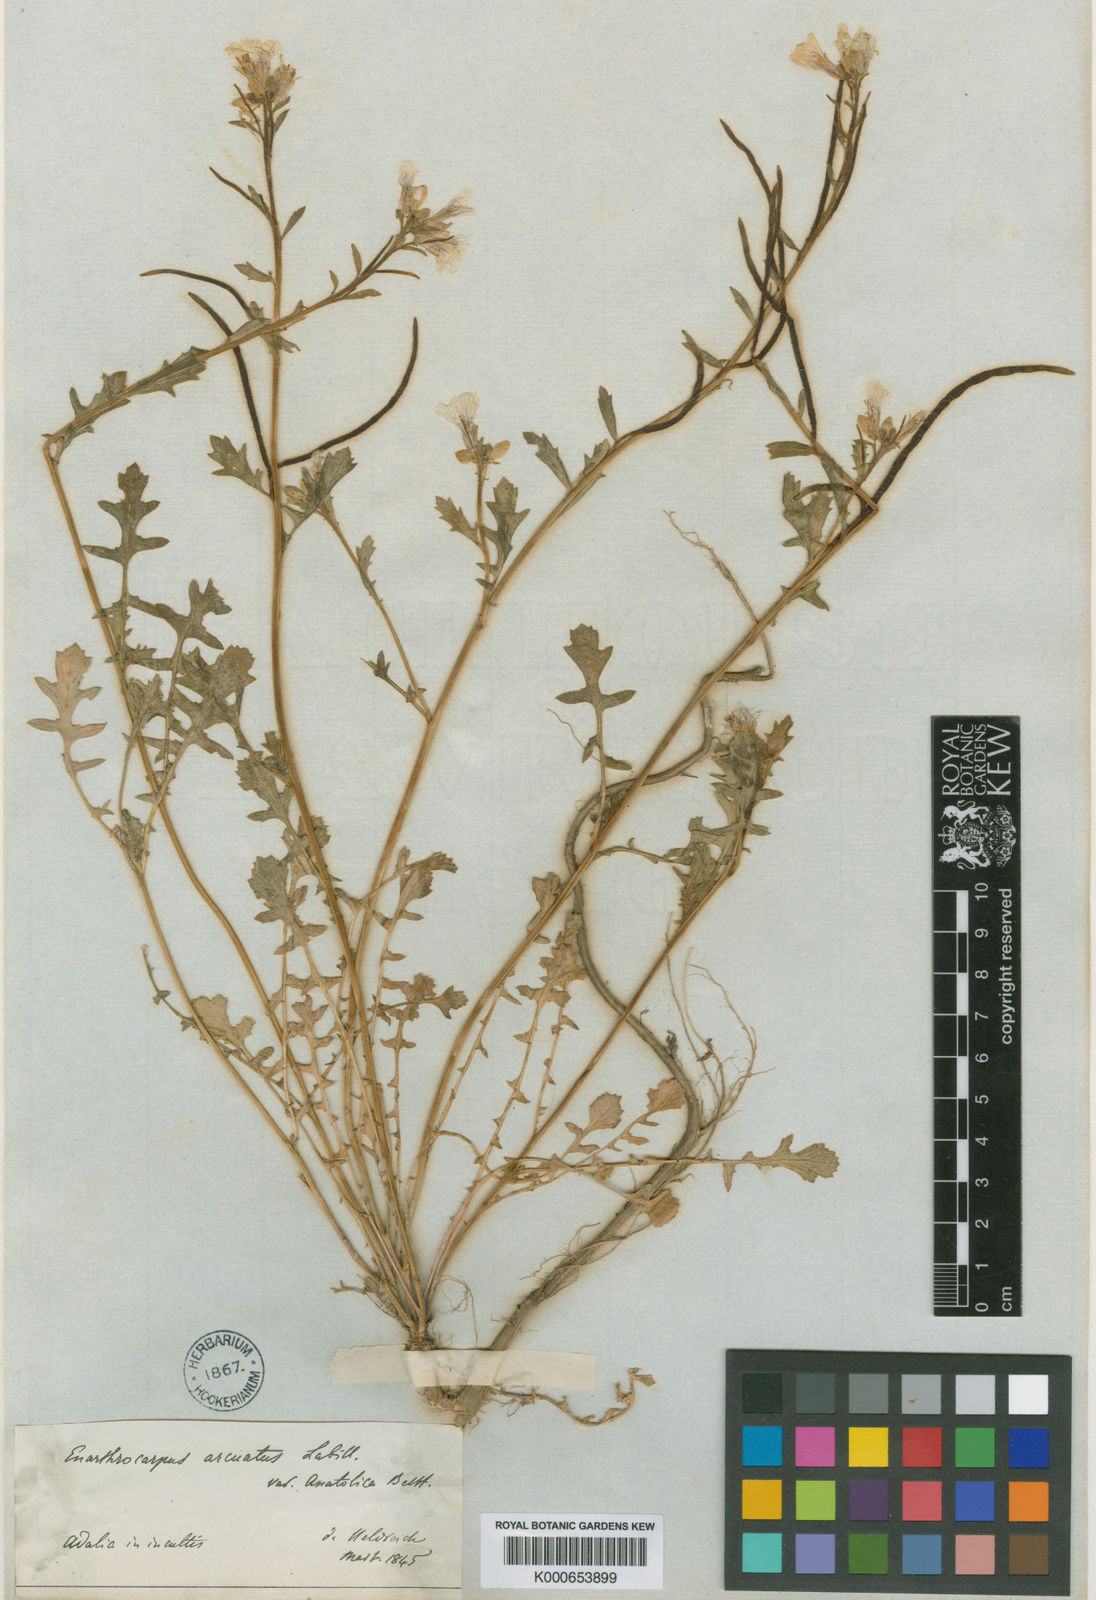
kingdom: Plantae
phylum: Tracheophyta
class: Magnoliopsida
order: Brassicales
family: Brassicaceae
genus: Enarthrocarpus
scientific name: Enarthrocarpus arcuatus
